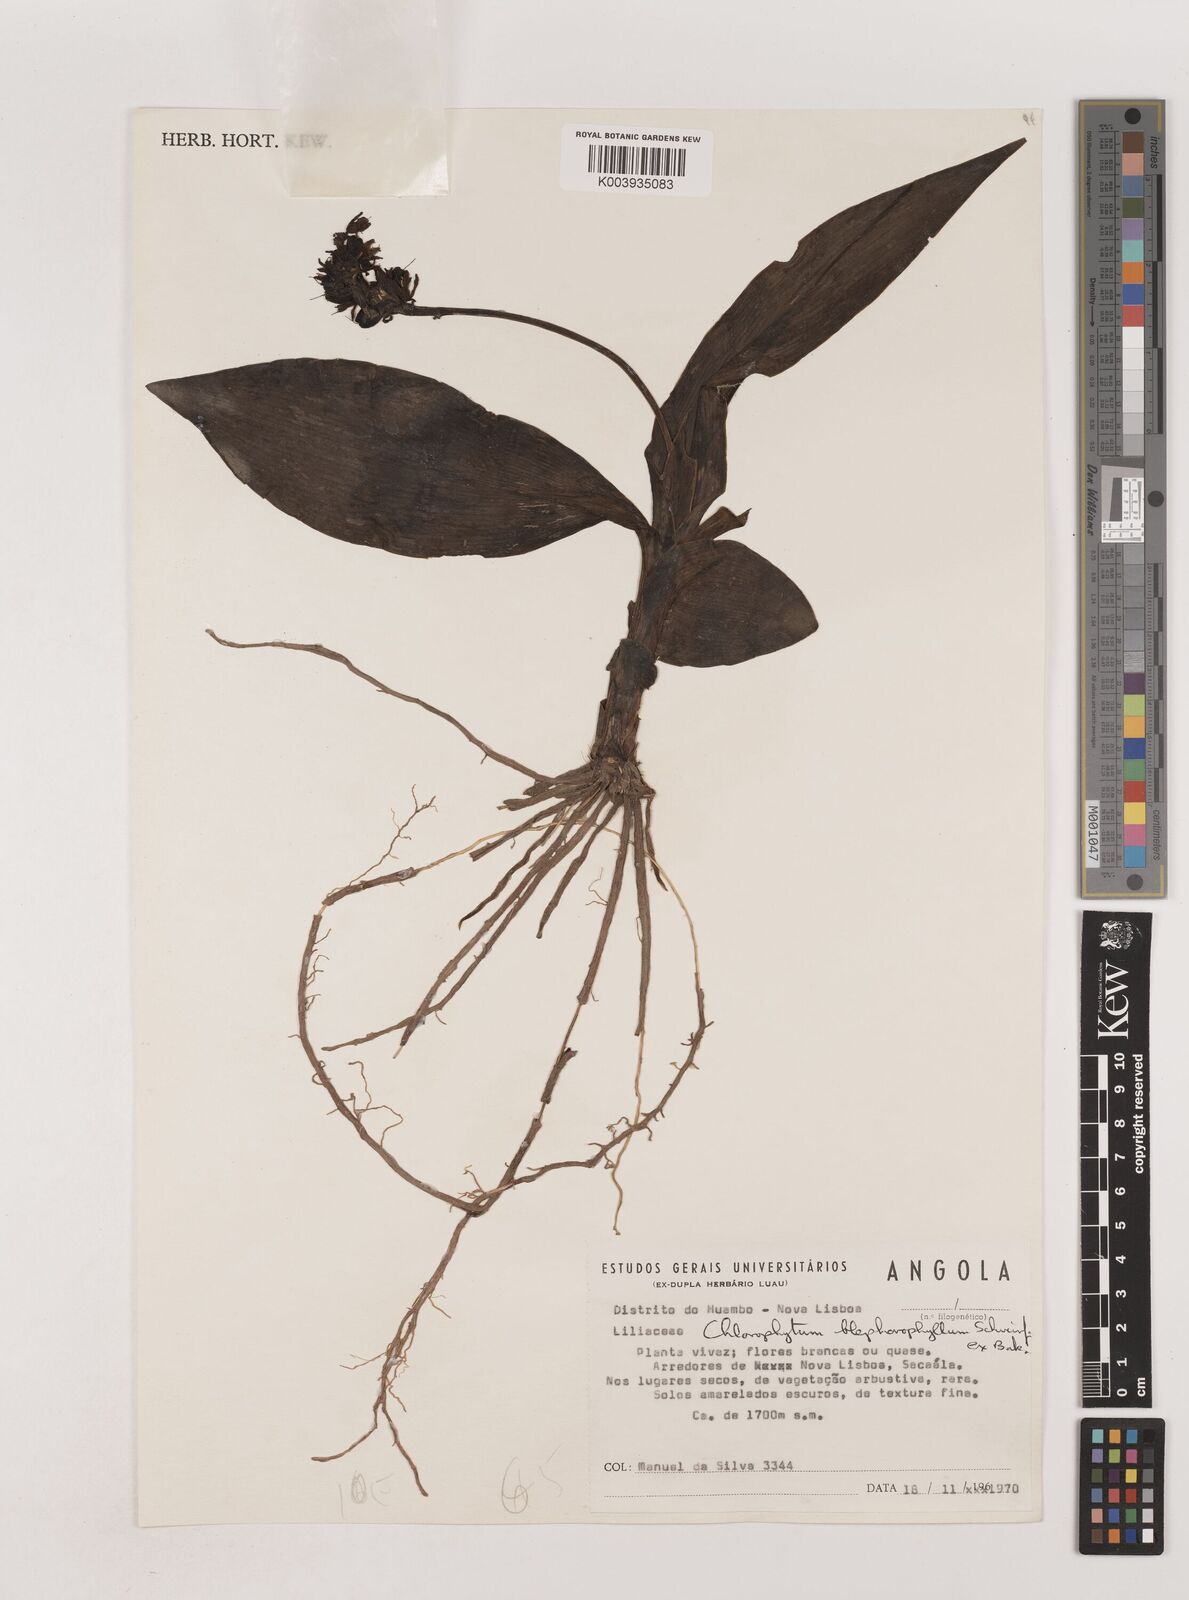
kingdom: Plantae
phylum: Tracheophyta
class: Liliopsida
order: Asparagales
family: Asparagaceae
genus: Chlorophytum
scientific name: Chlorophytum blepharophyllum
